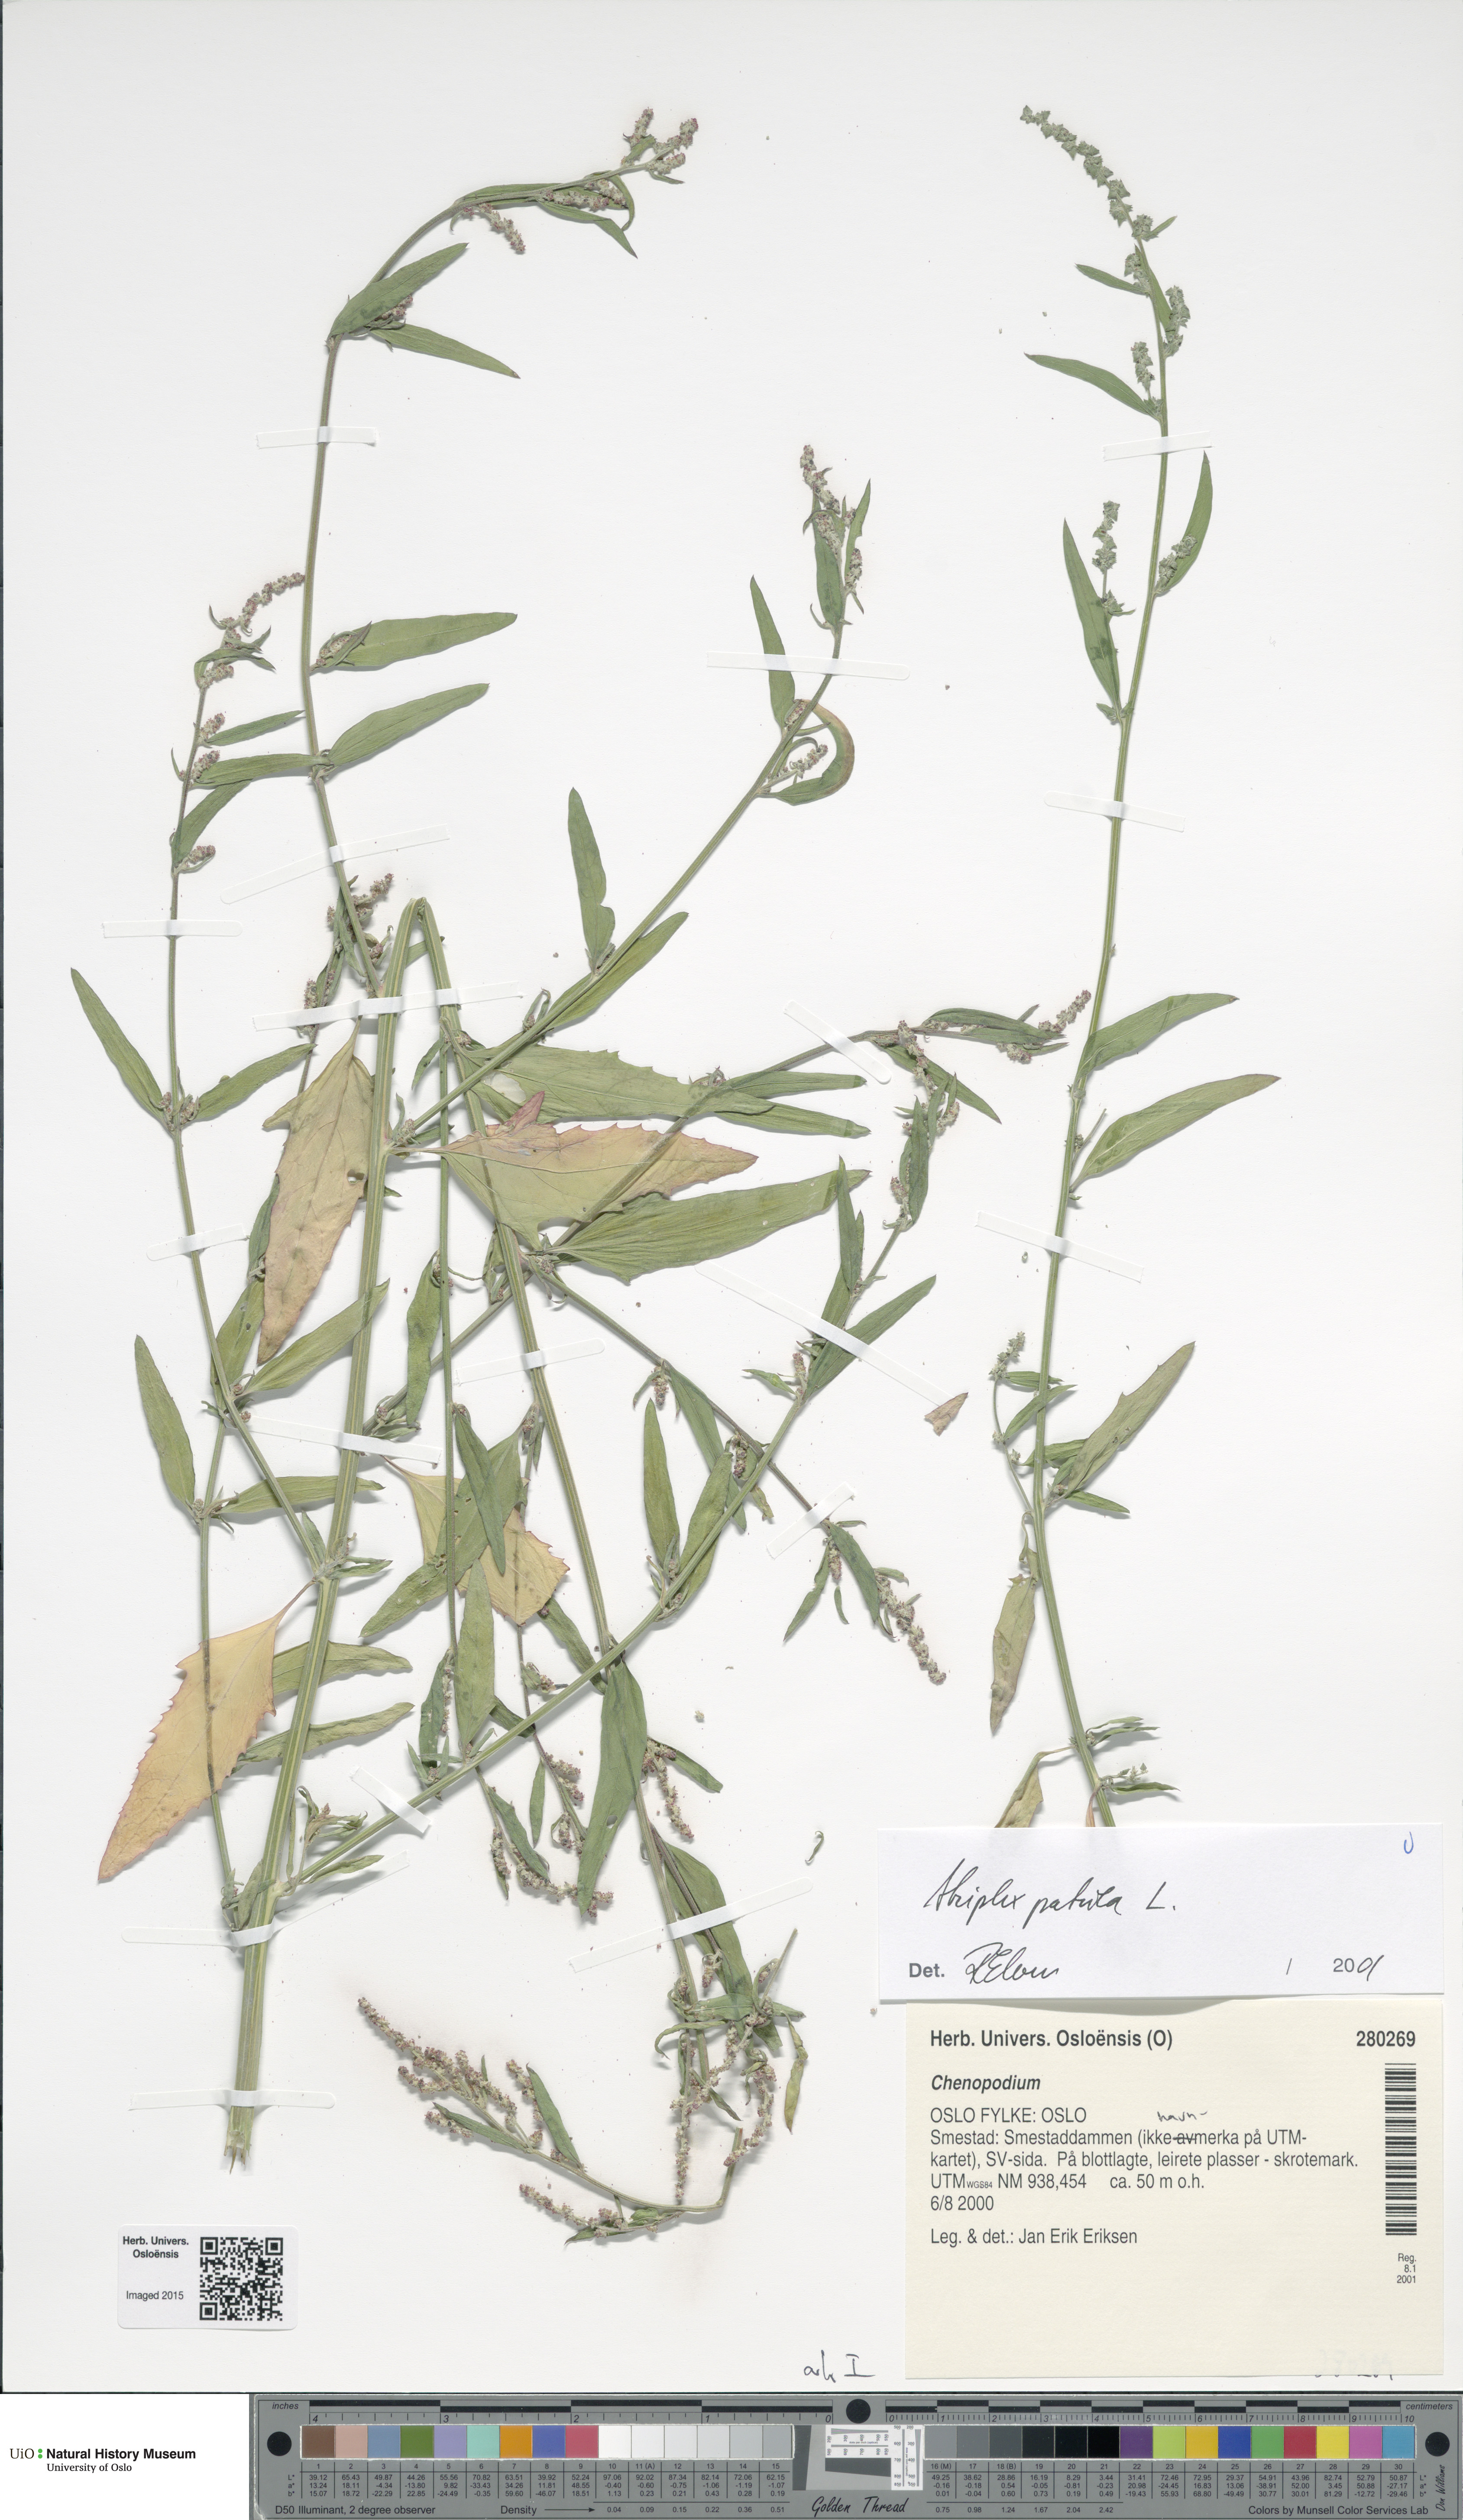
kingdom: Plantae
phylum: Tracheophyta
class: Magnoliopsida
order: Caryophyllales
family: Amaranthaceae
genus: Atriplex
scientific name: Atriplex patula
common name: Common orache
